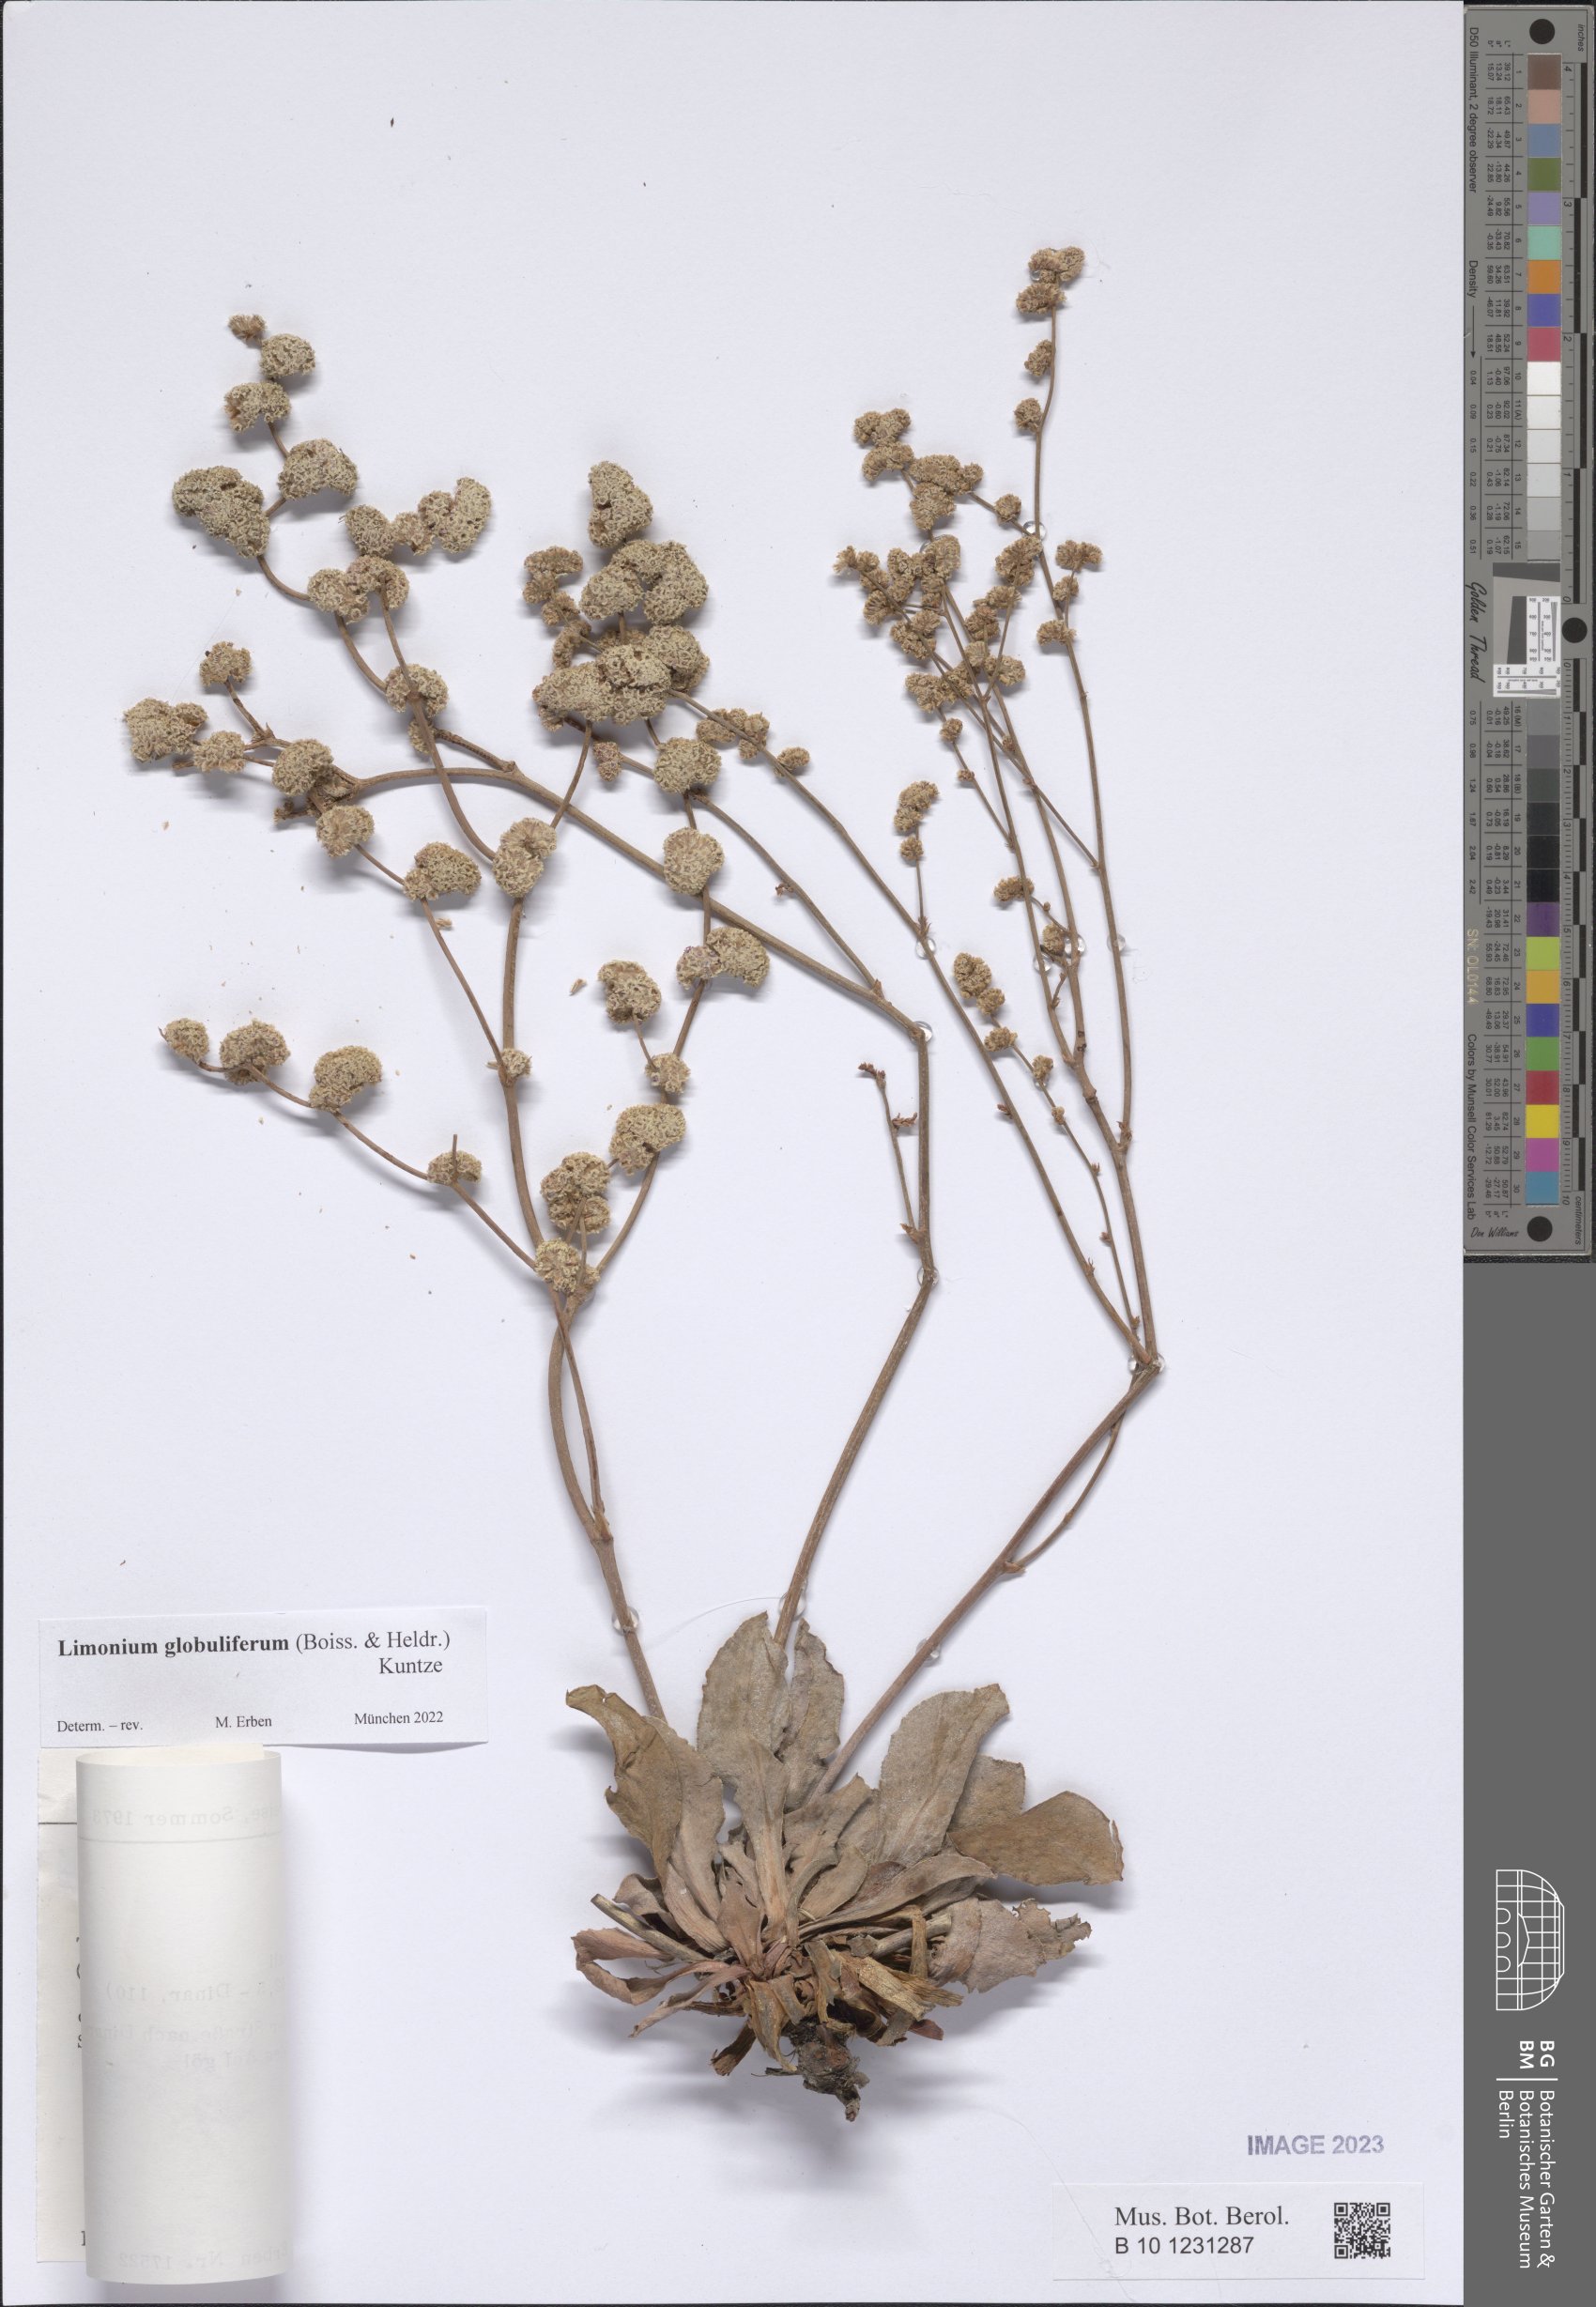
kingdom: Plantae
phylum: Tracheophyta
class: Magnoliopsida
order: Caryophyllales
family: Plumbaginaceae
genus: Limonium
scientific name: Limonium globuliferum
